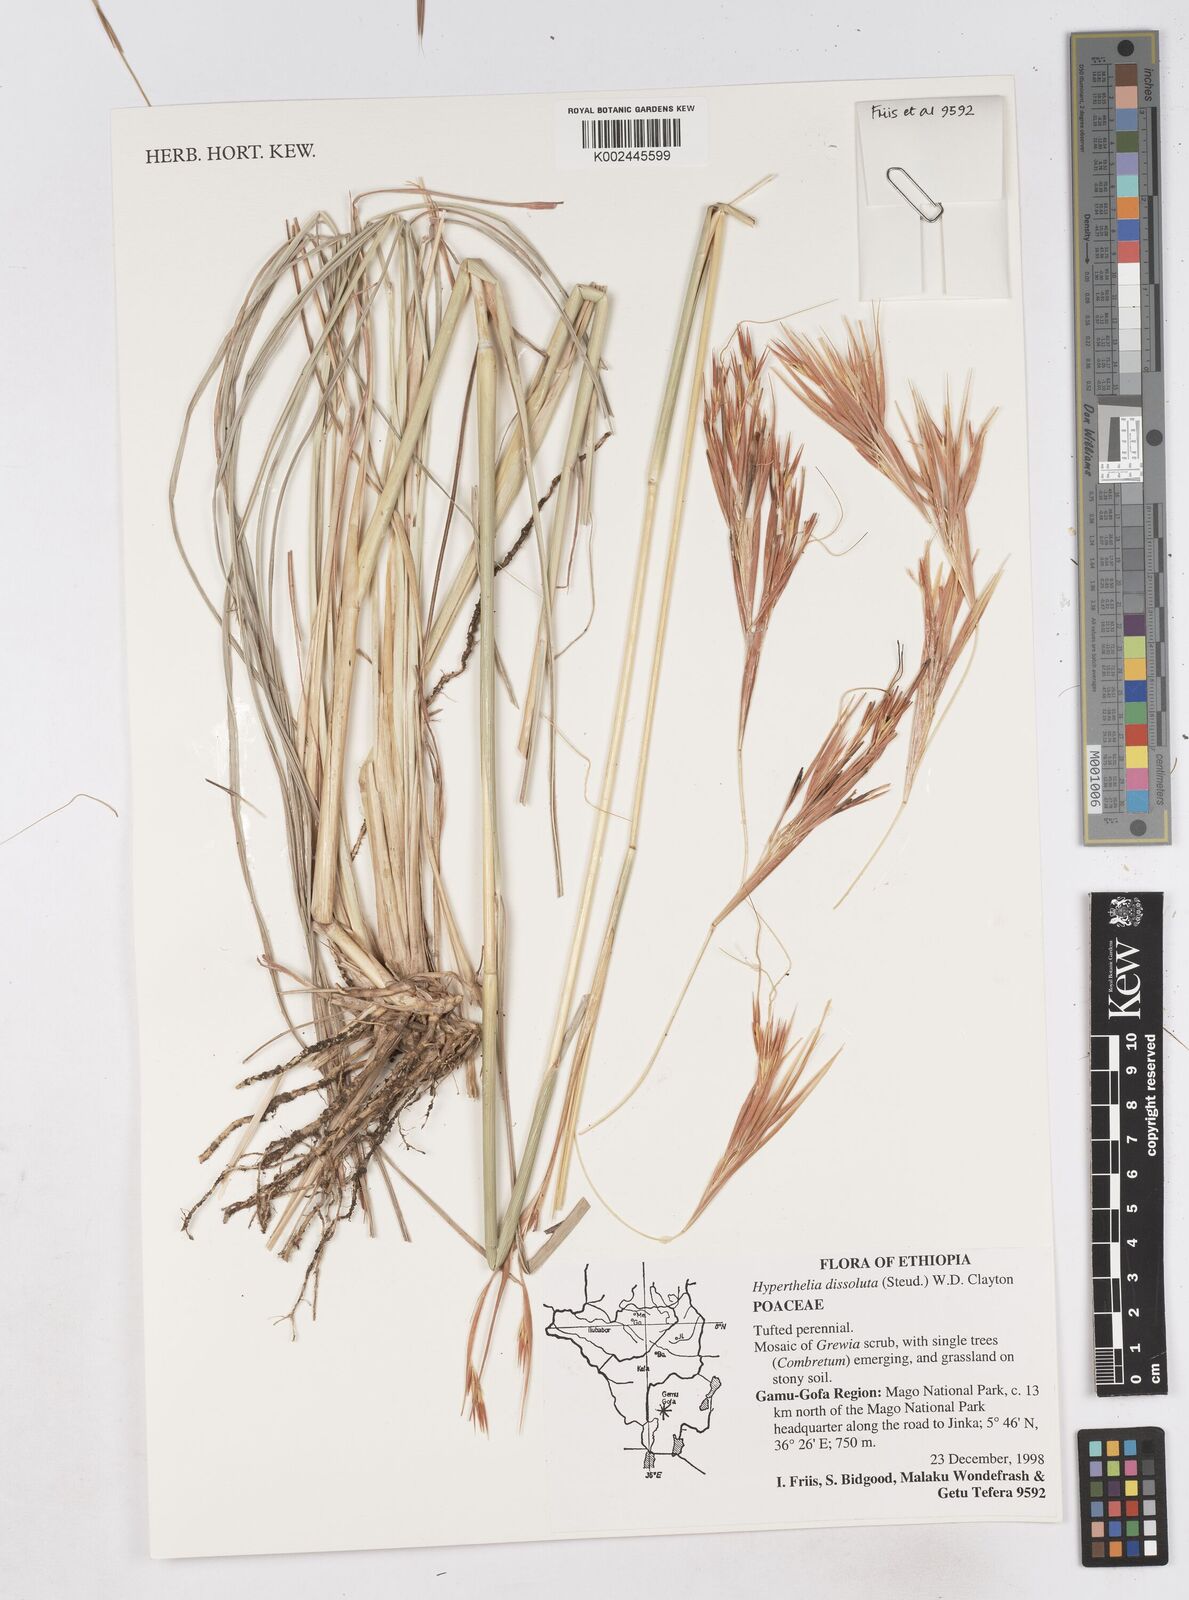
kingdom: Plantae
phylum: Tracheophyta
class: Liliopsida
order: Poales
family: Poaceae
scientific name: Poaceae
